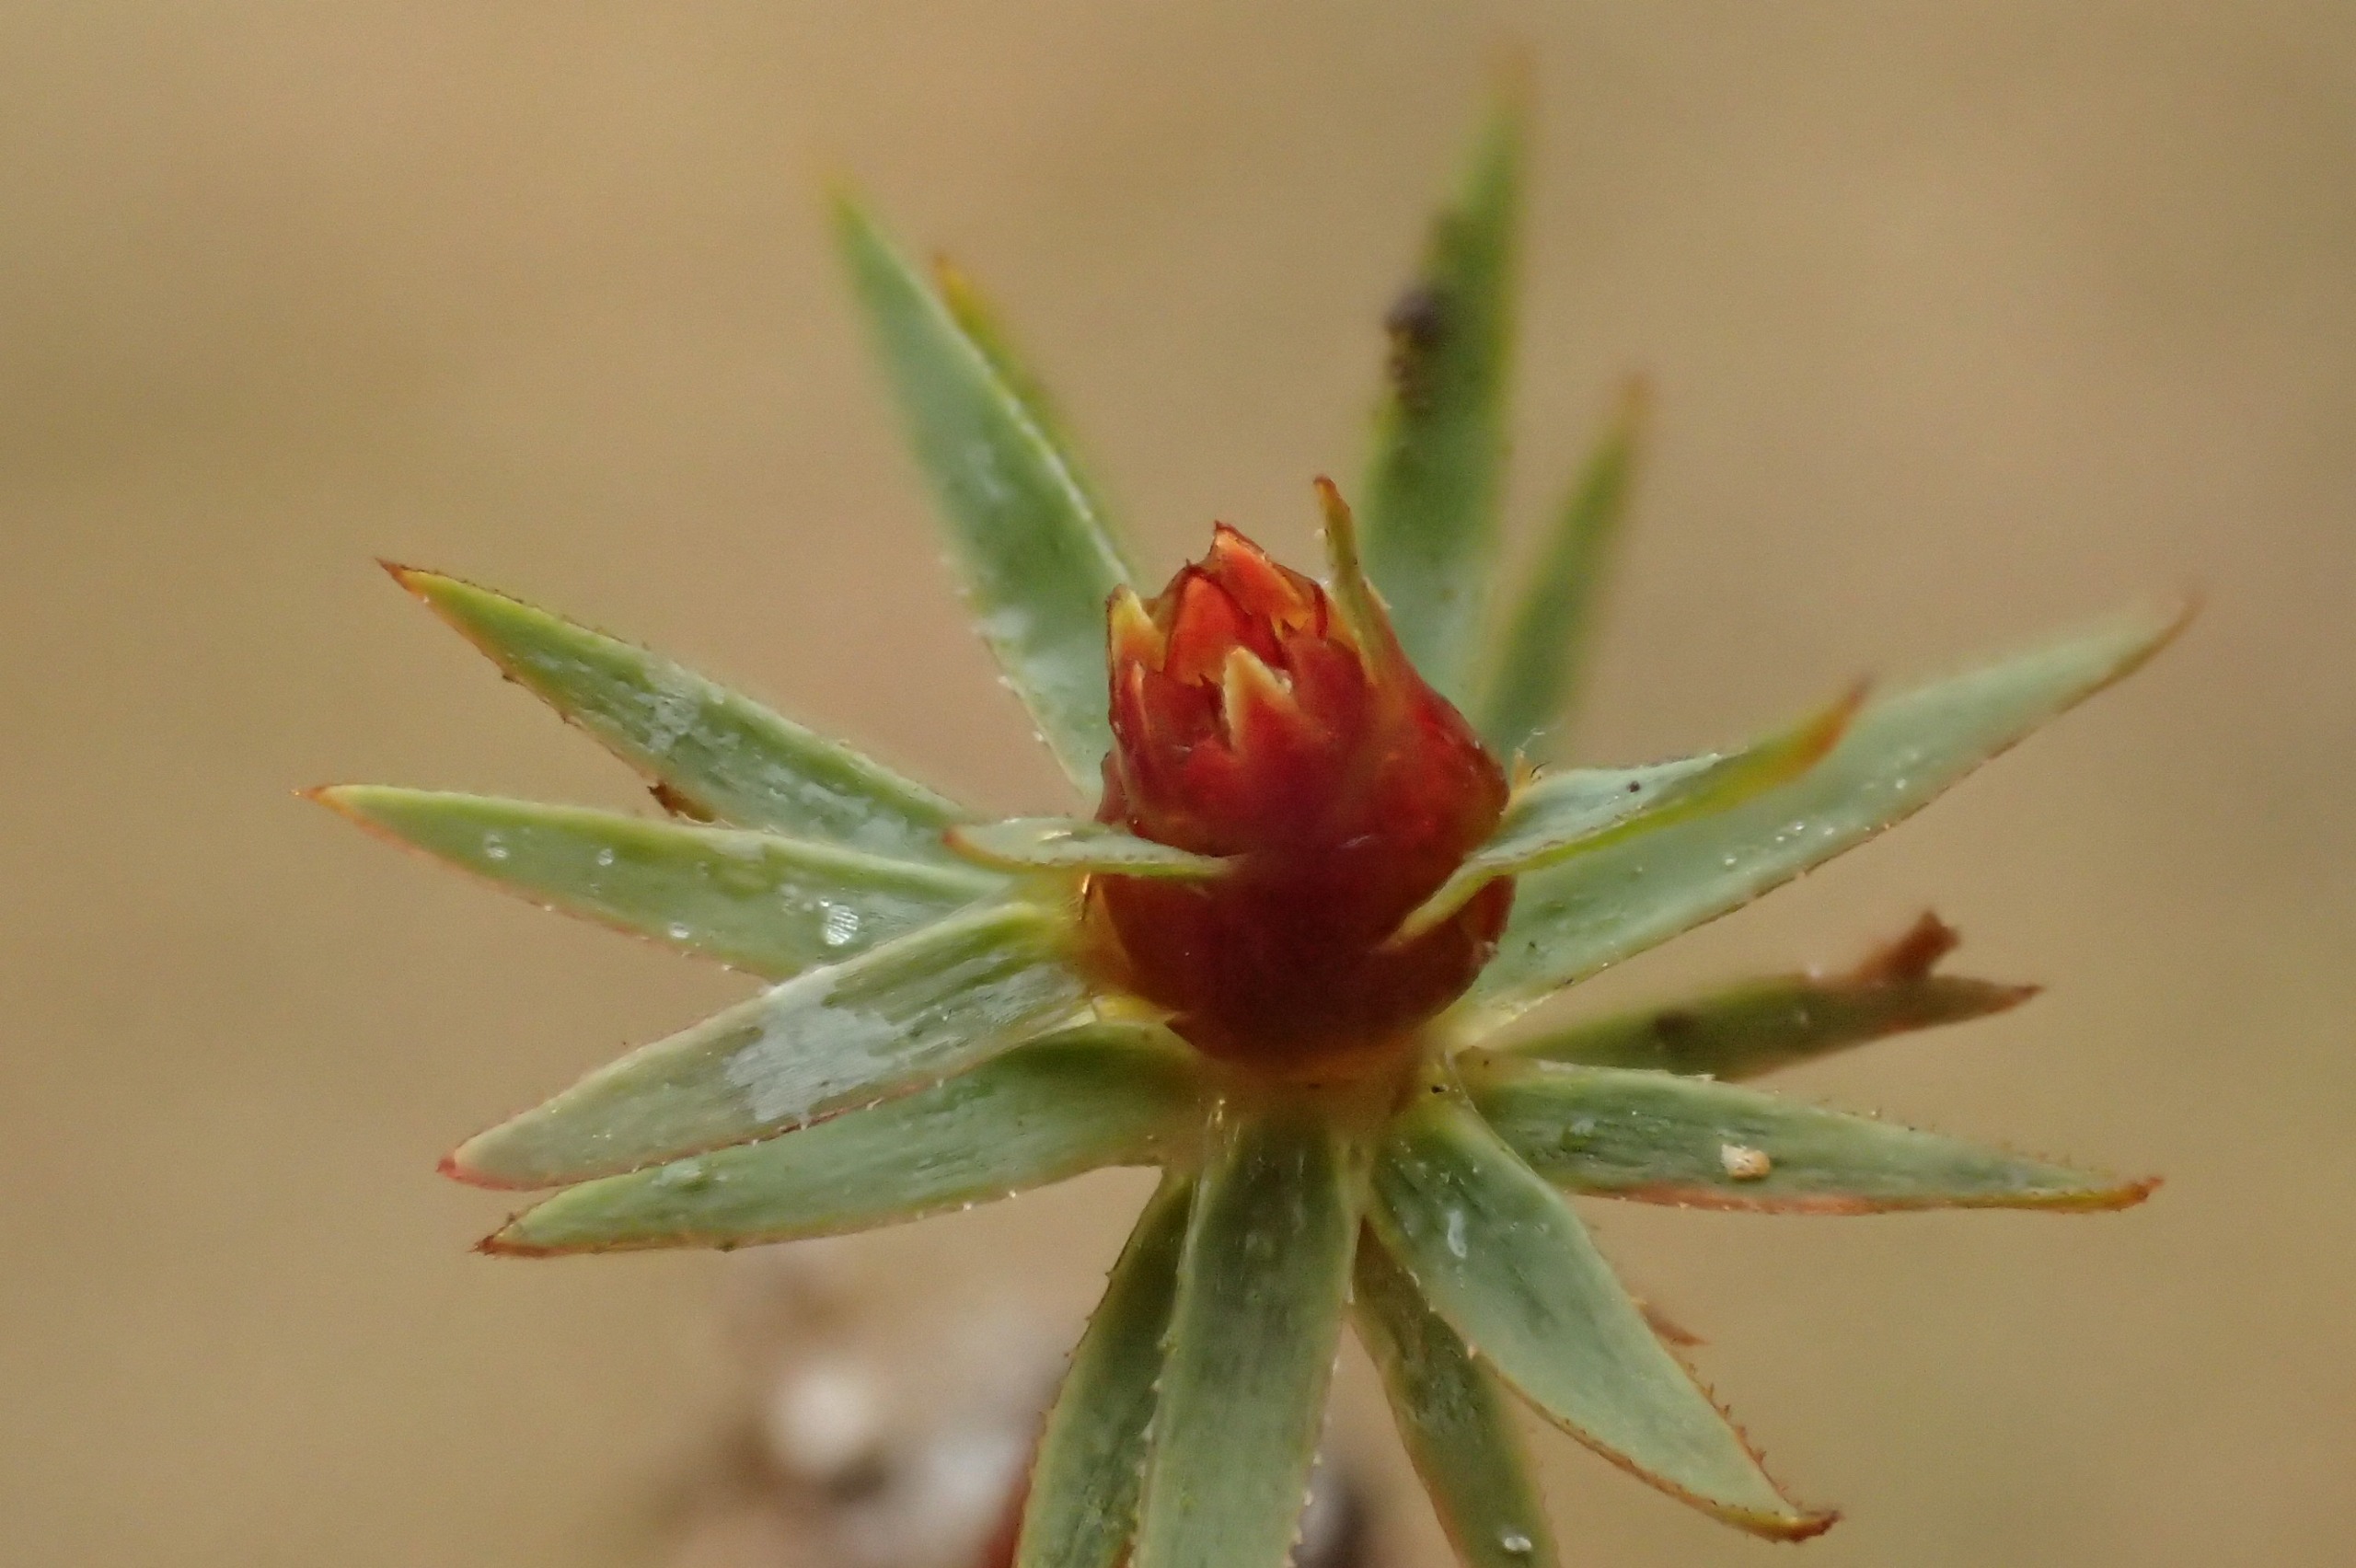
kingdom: Plantae
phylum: Bryophyta
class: Polytrichopsida
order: Polytrichales
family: Polytrichaceae
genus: Pogonatum
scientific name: Pogonatum urnigerum
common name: Stor urnekapsel
